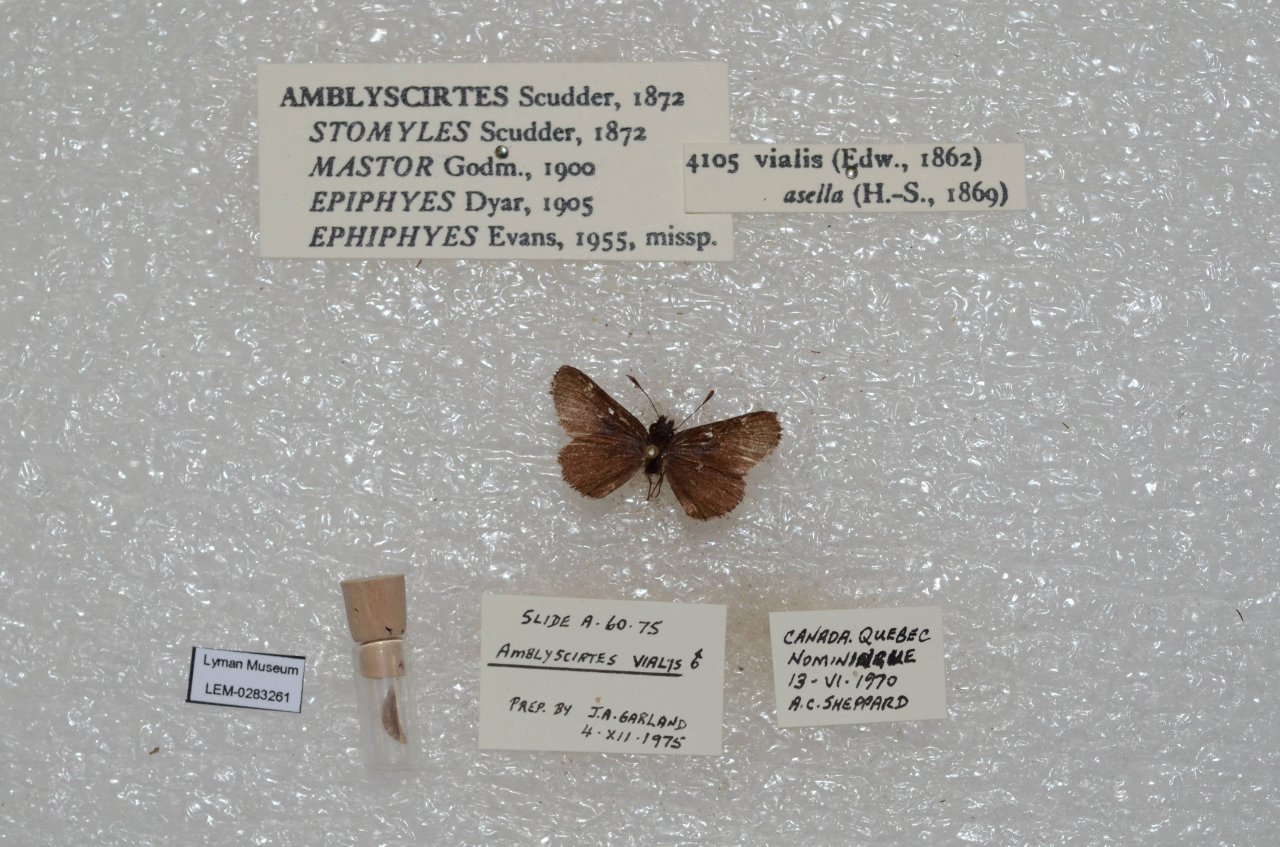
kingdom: Animalia
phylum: Arthropoda
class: Insecta
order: Lepidoptera
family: Hesperiidae
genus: Mastor
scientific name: Mastor vialis
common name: Common Roadside-Skipper
